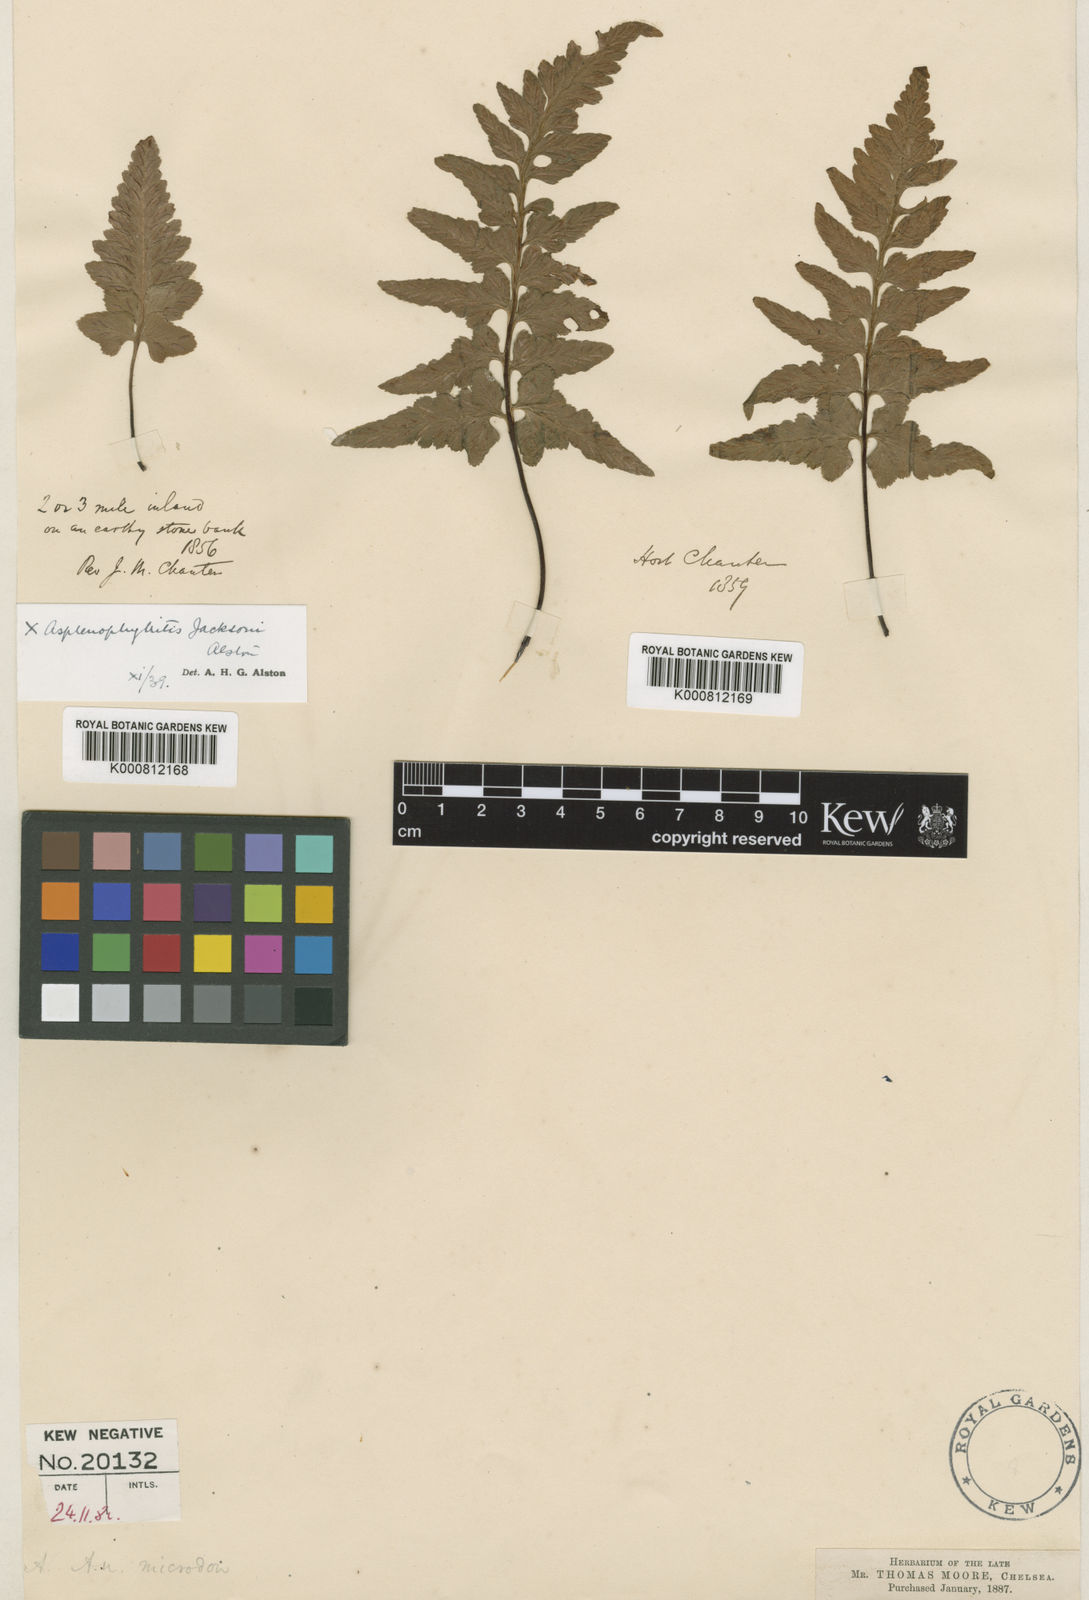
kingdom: Plantae
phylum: Tracheophyta
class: Polypodiopsida
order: Polypodiales
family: Aspleniaceae
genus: Asplenium
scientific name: Asplenium jacksonii
